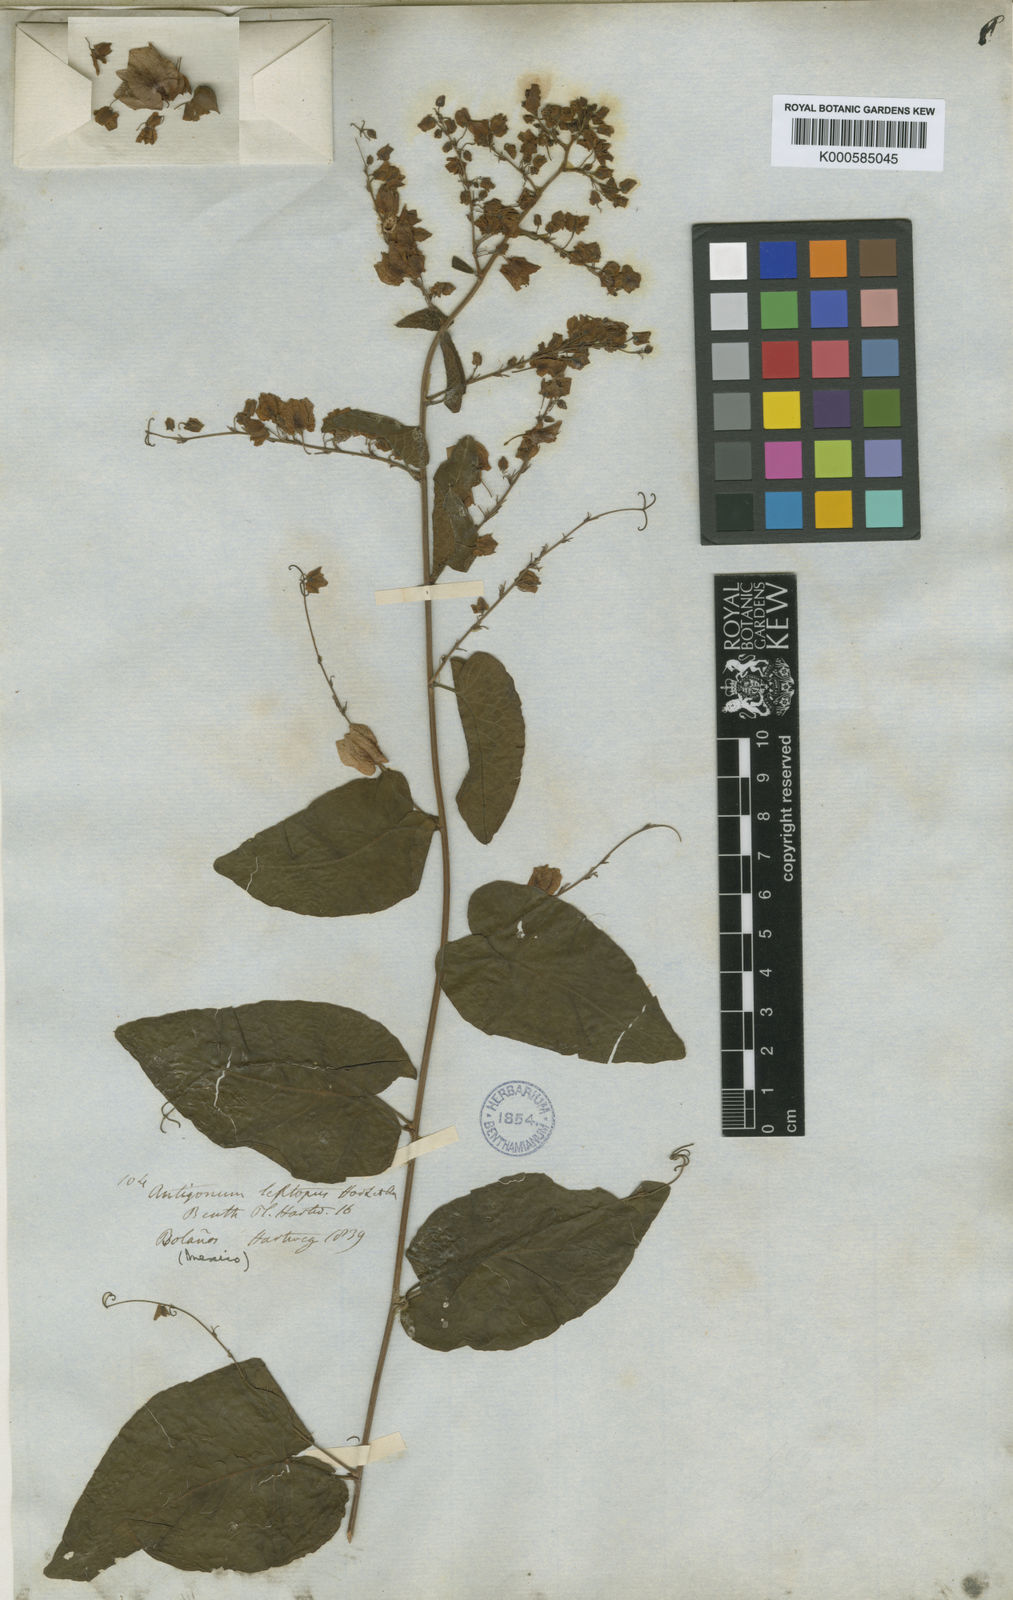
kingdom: Plantae
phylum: Tracheophyta
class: Magnoliopsida
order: Caryophyllales
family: Polygonaceae
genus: Antigonon
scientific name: Antigonon leptopus
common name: Coral vine
